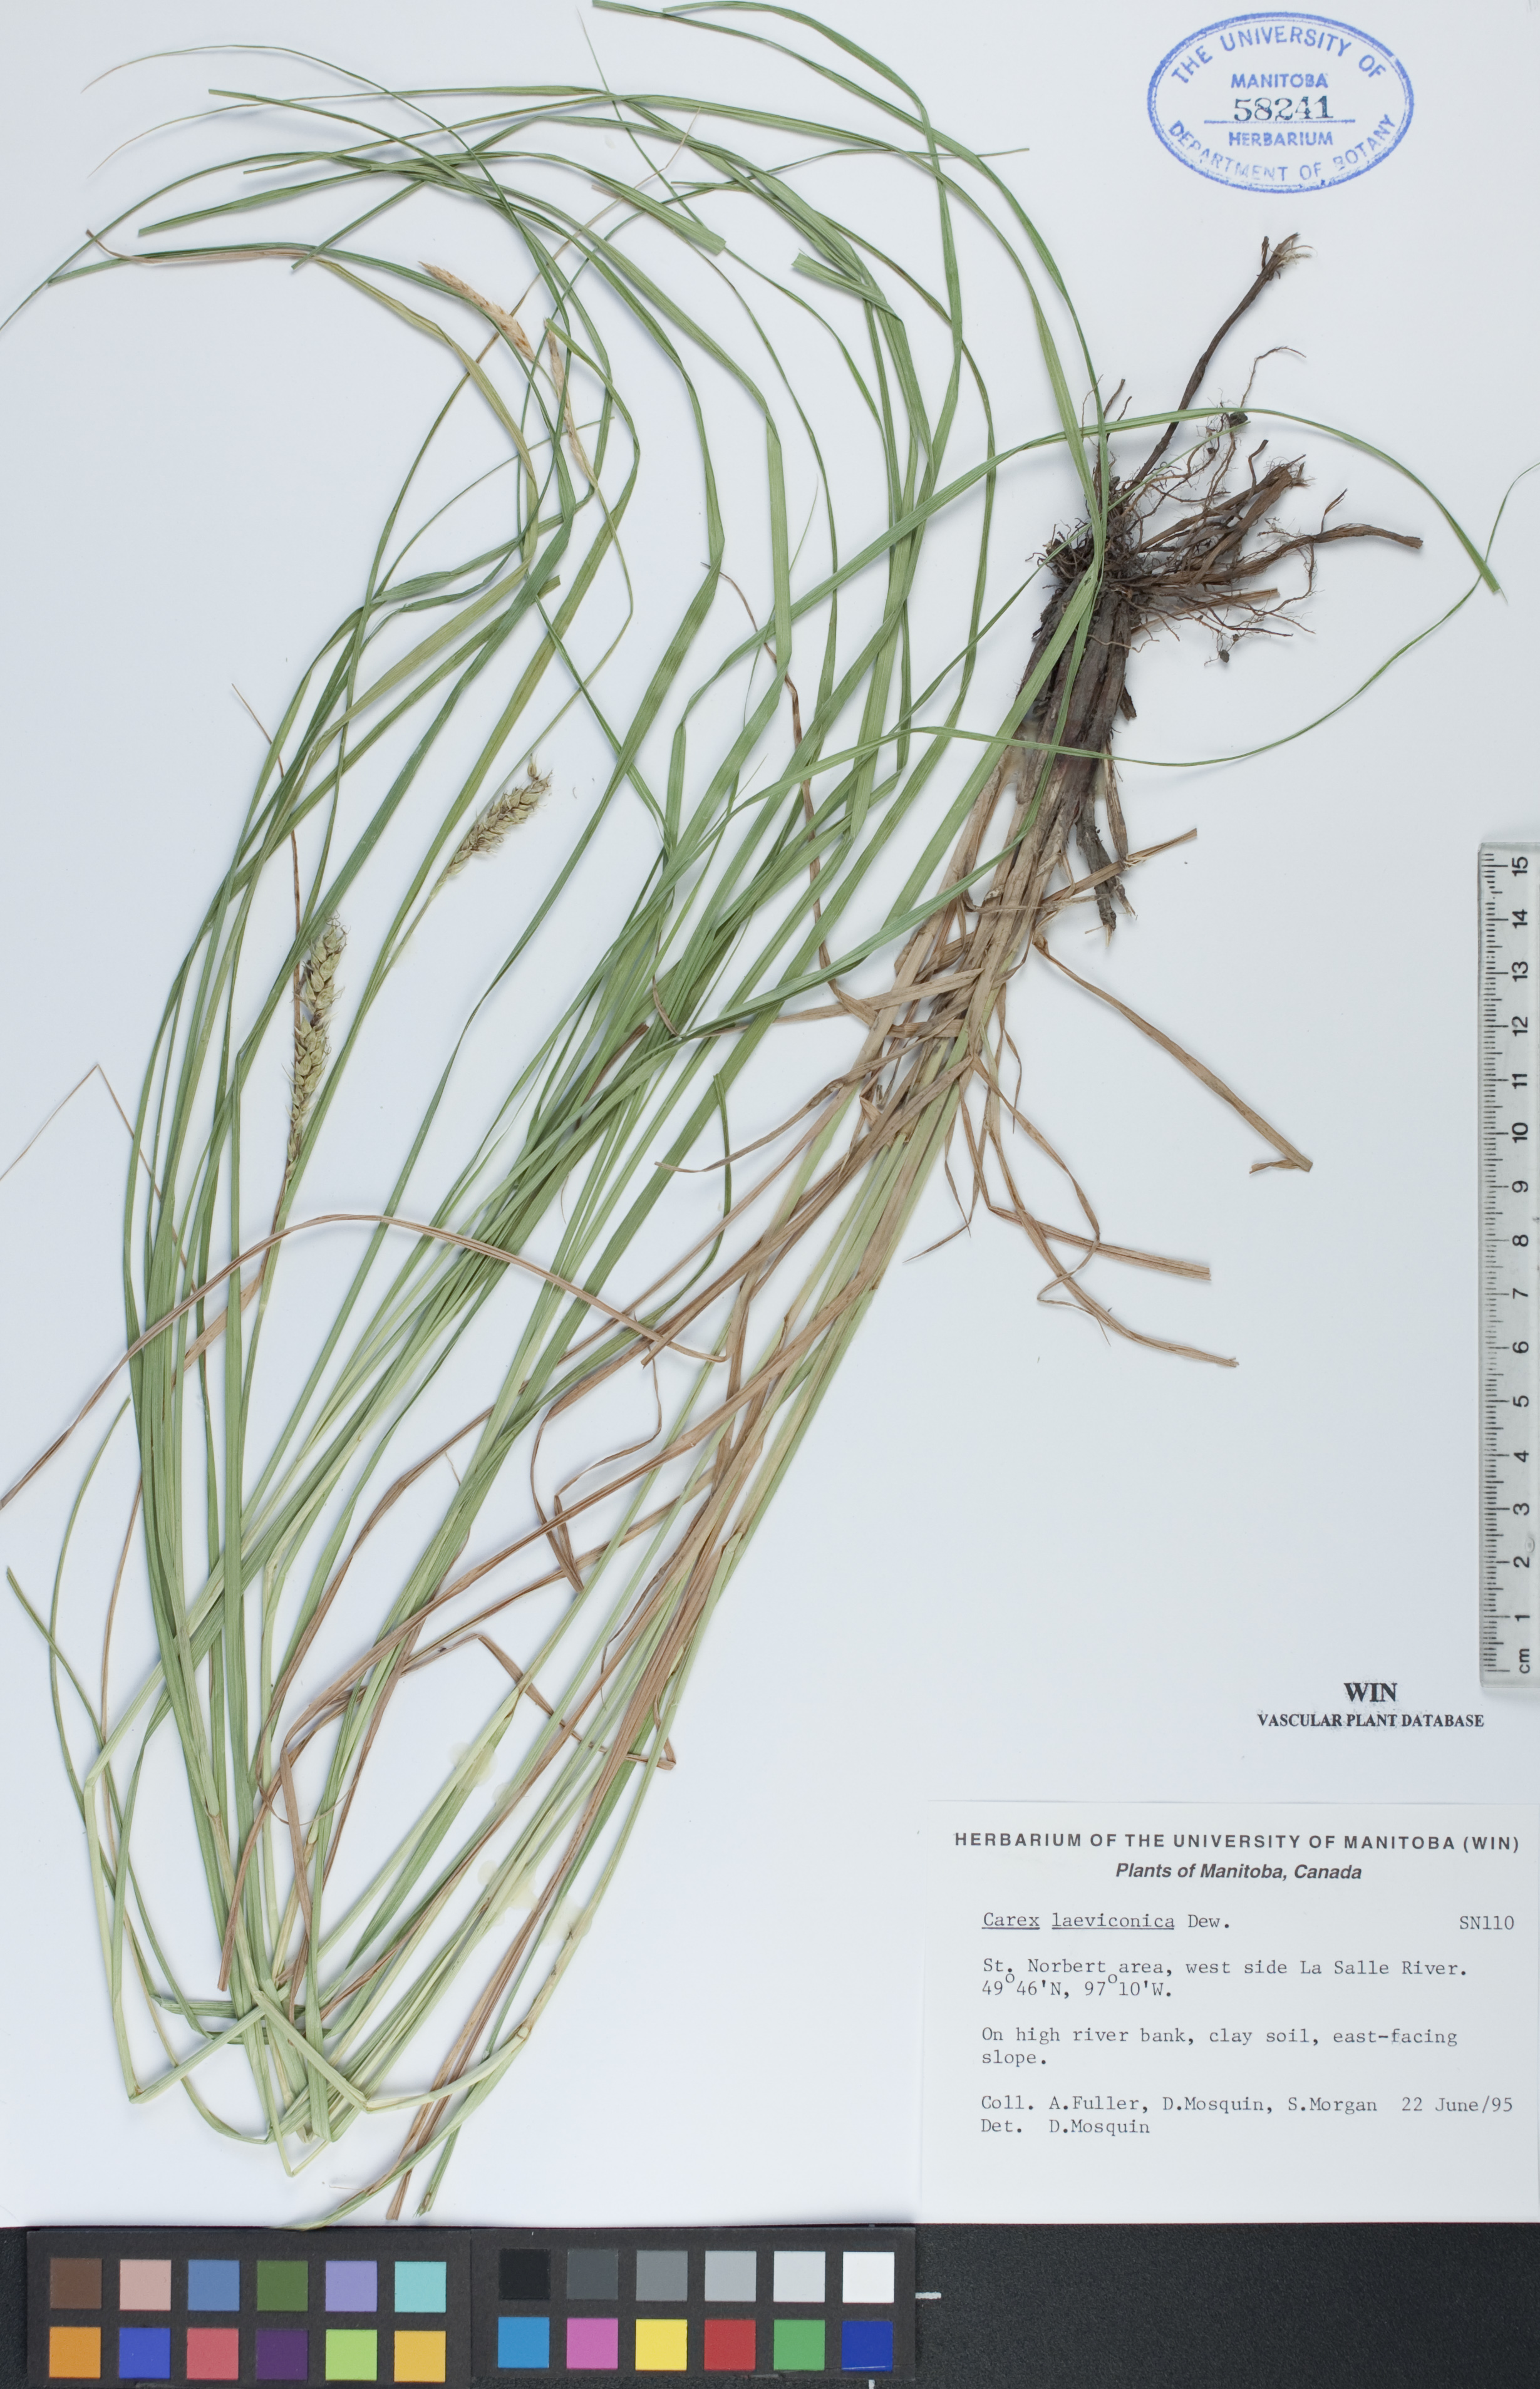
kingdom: Plantae
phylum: Tracheophyta
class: Liliopsida
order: Poales
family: Cyperaceae
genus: Carex
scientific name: Carex laeviconica
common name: Plains slough sedge
